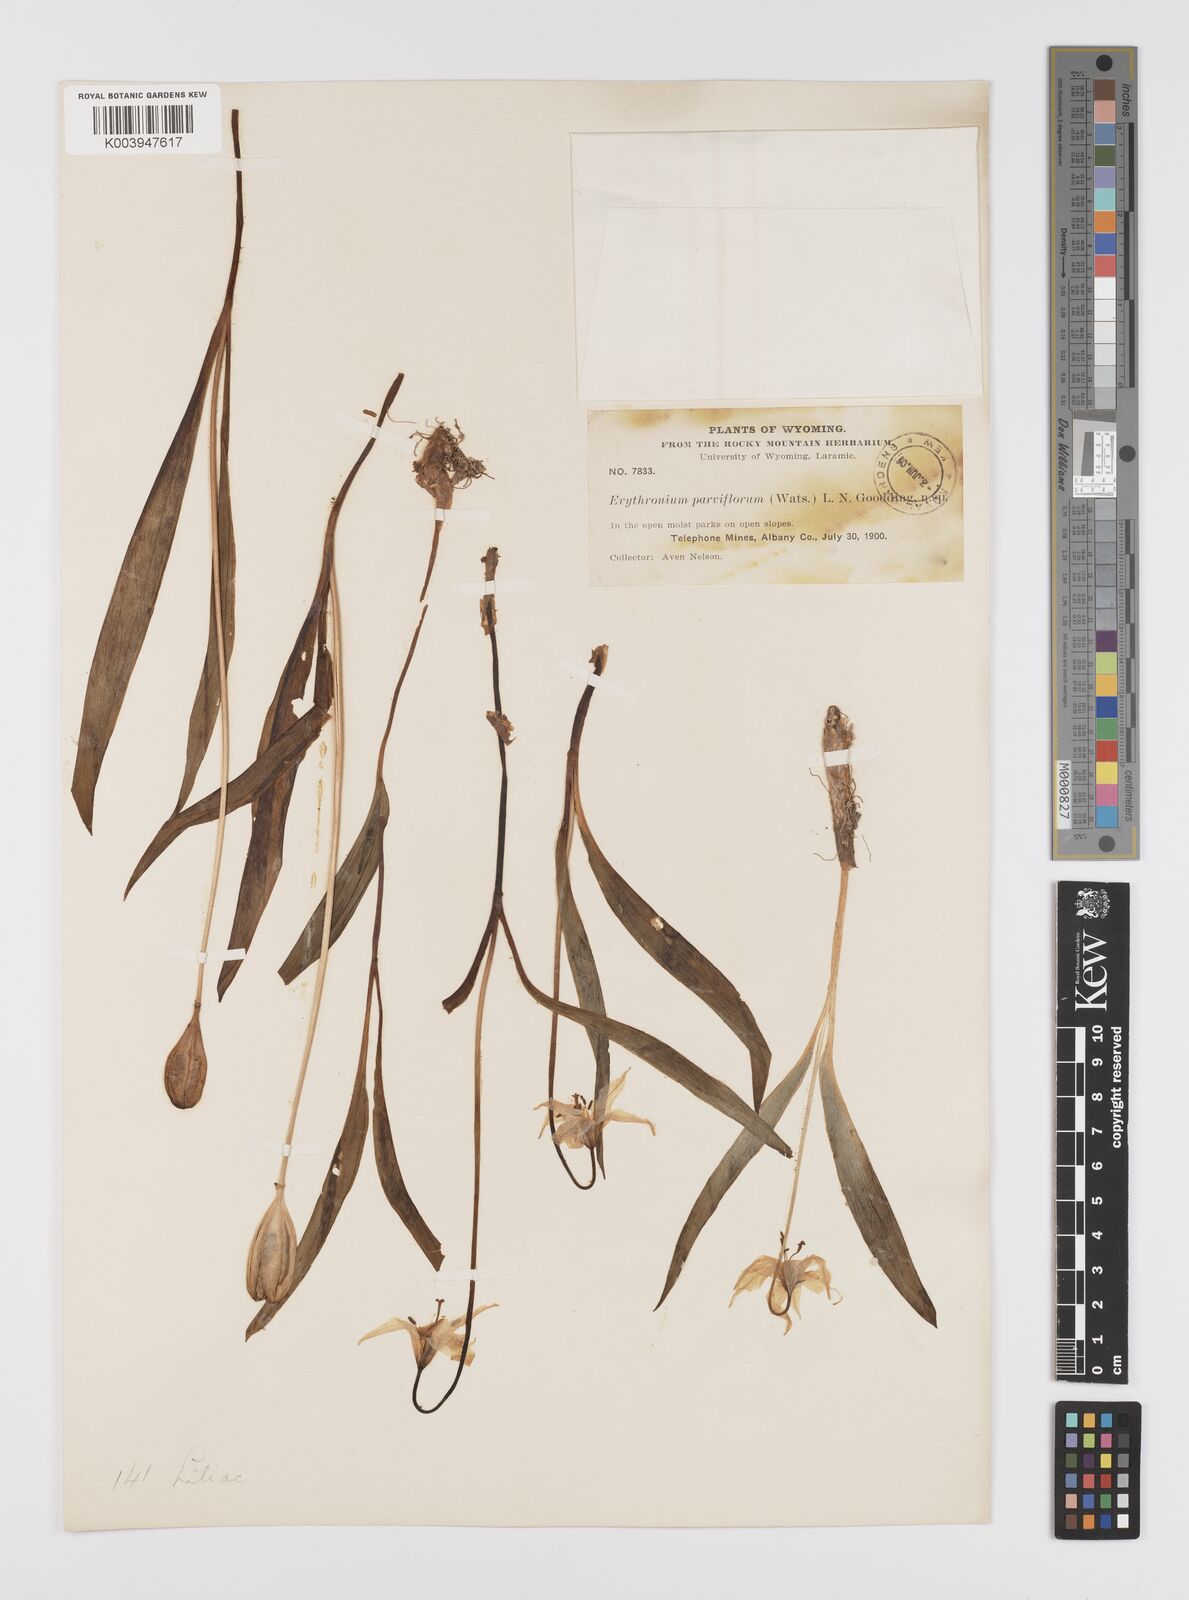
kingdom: Plantae
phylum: Tracheophyta
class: Liliopsida
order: Liliales
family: Liliaceae
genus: Erythronium
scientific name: Erythronium grandiflorum
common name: Avalanche-lily
